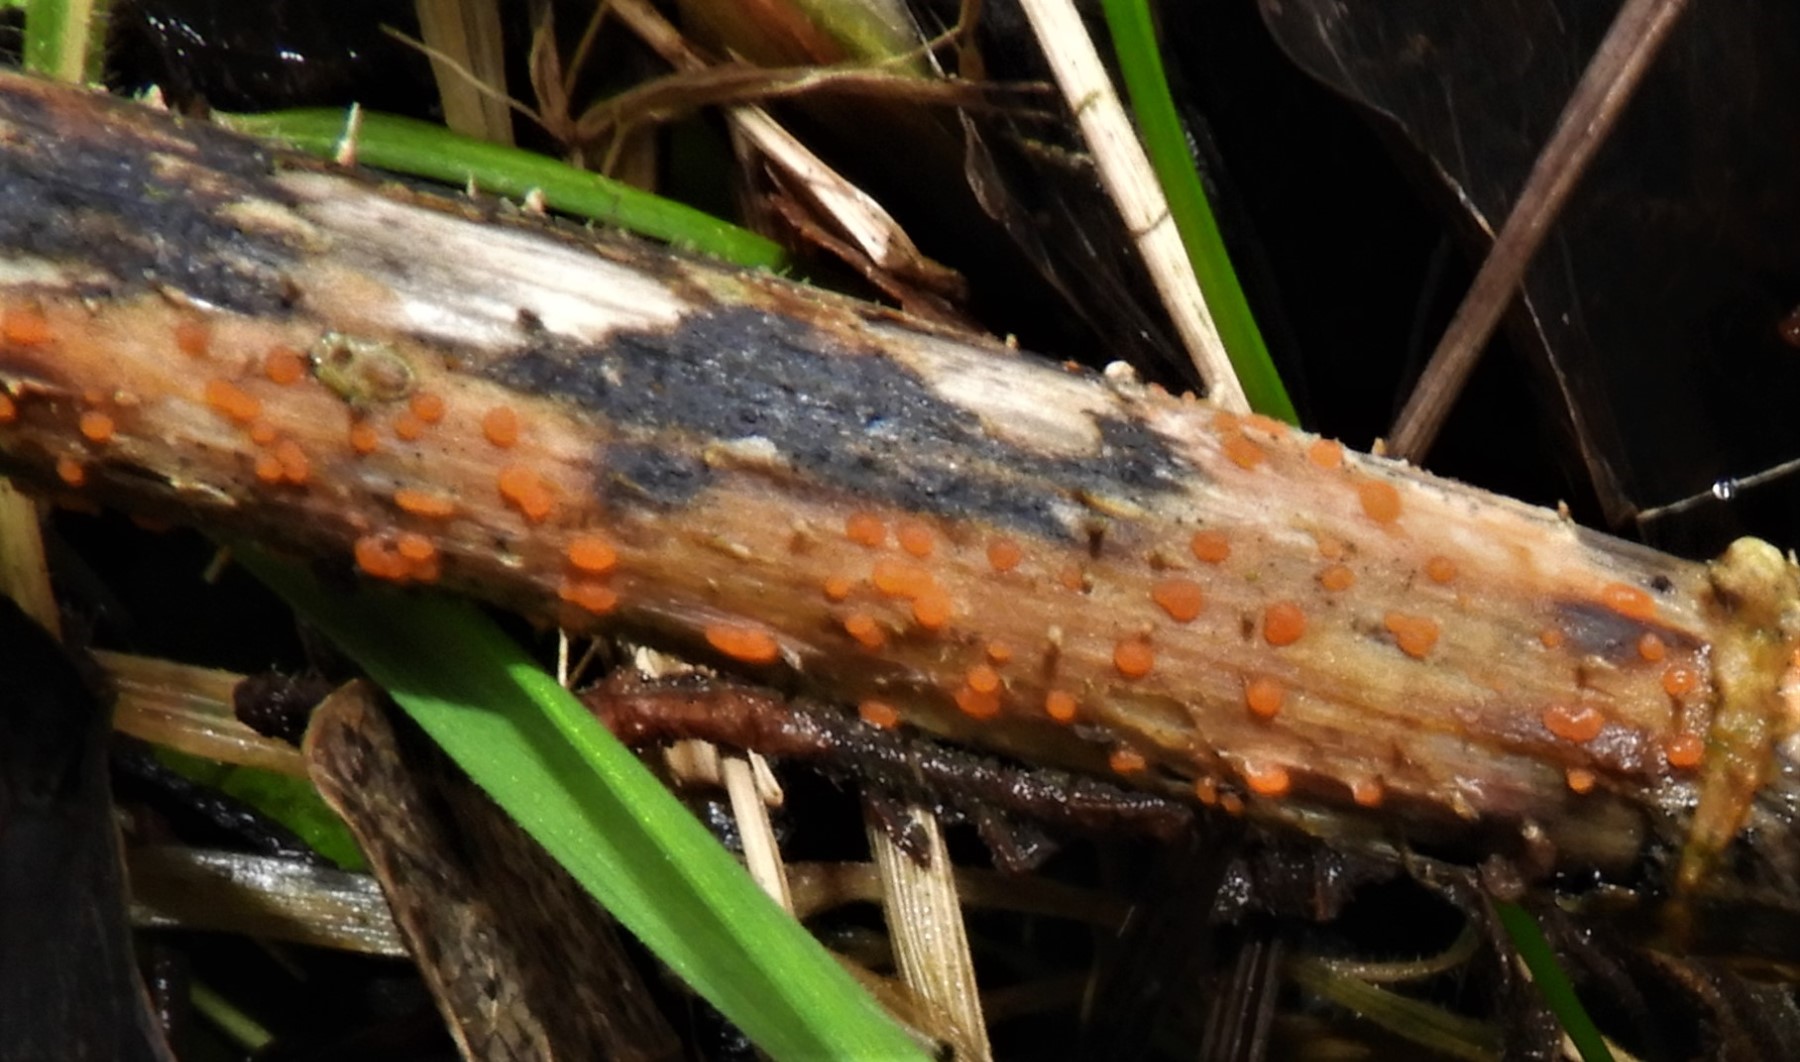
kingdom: Fungi
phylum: Ascomycota
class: Leotiomycetes
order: Helotiales
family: Calloriaceae
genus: Calloria
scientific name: Calloria urticae
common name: nælde-orangeskive
